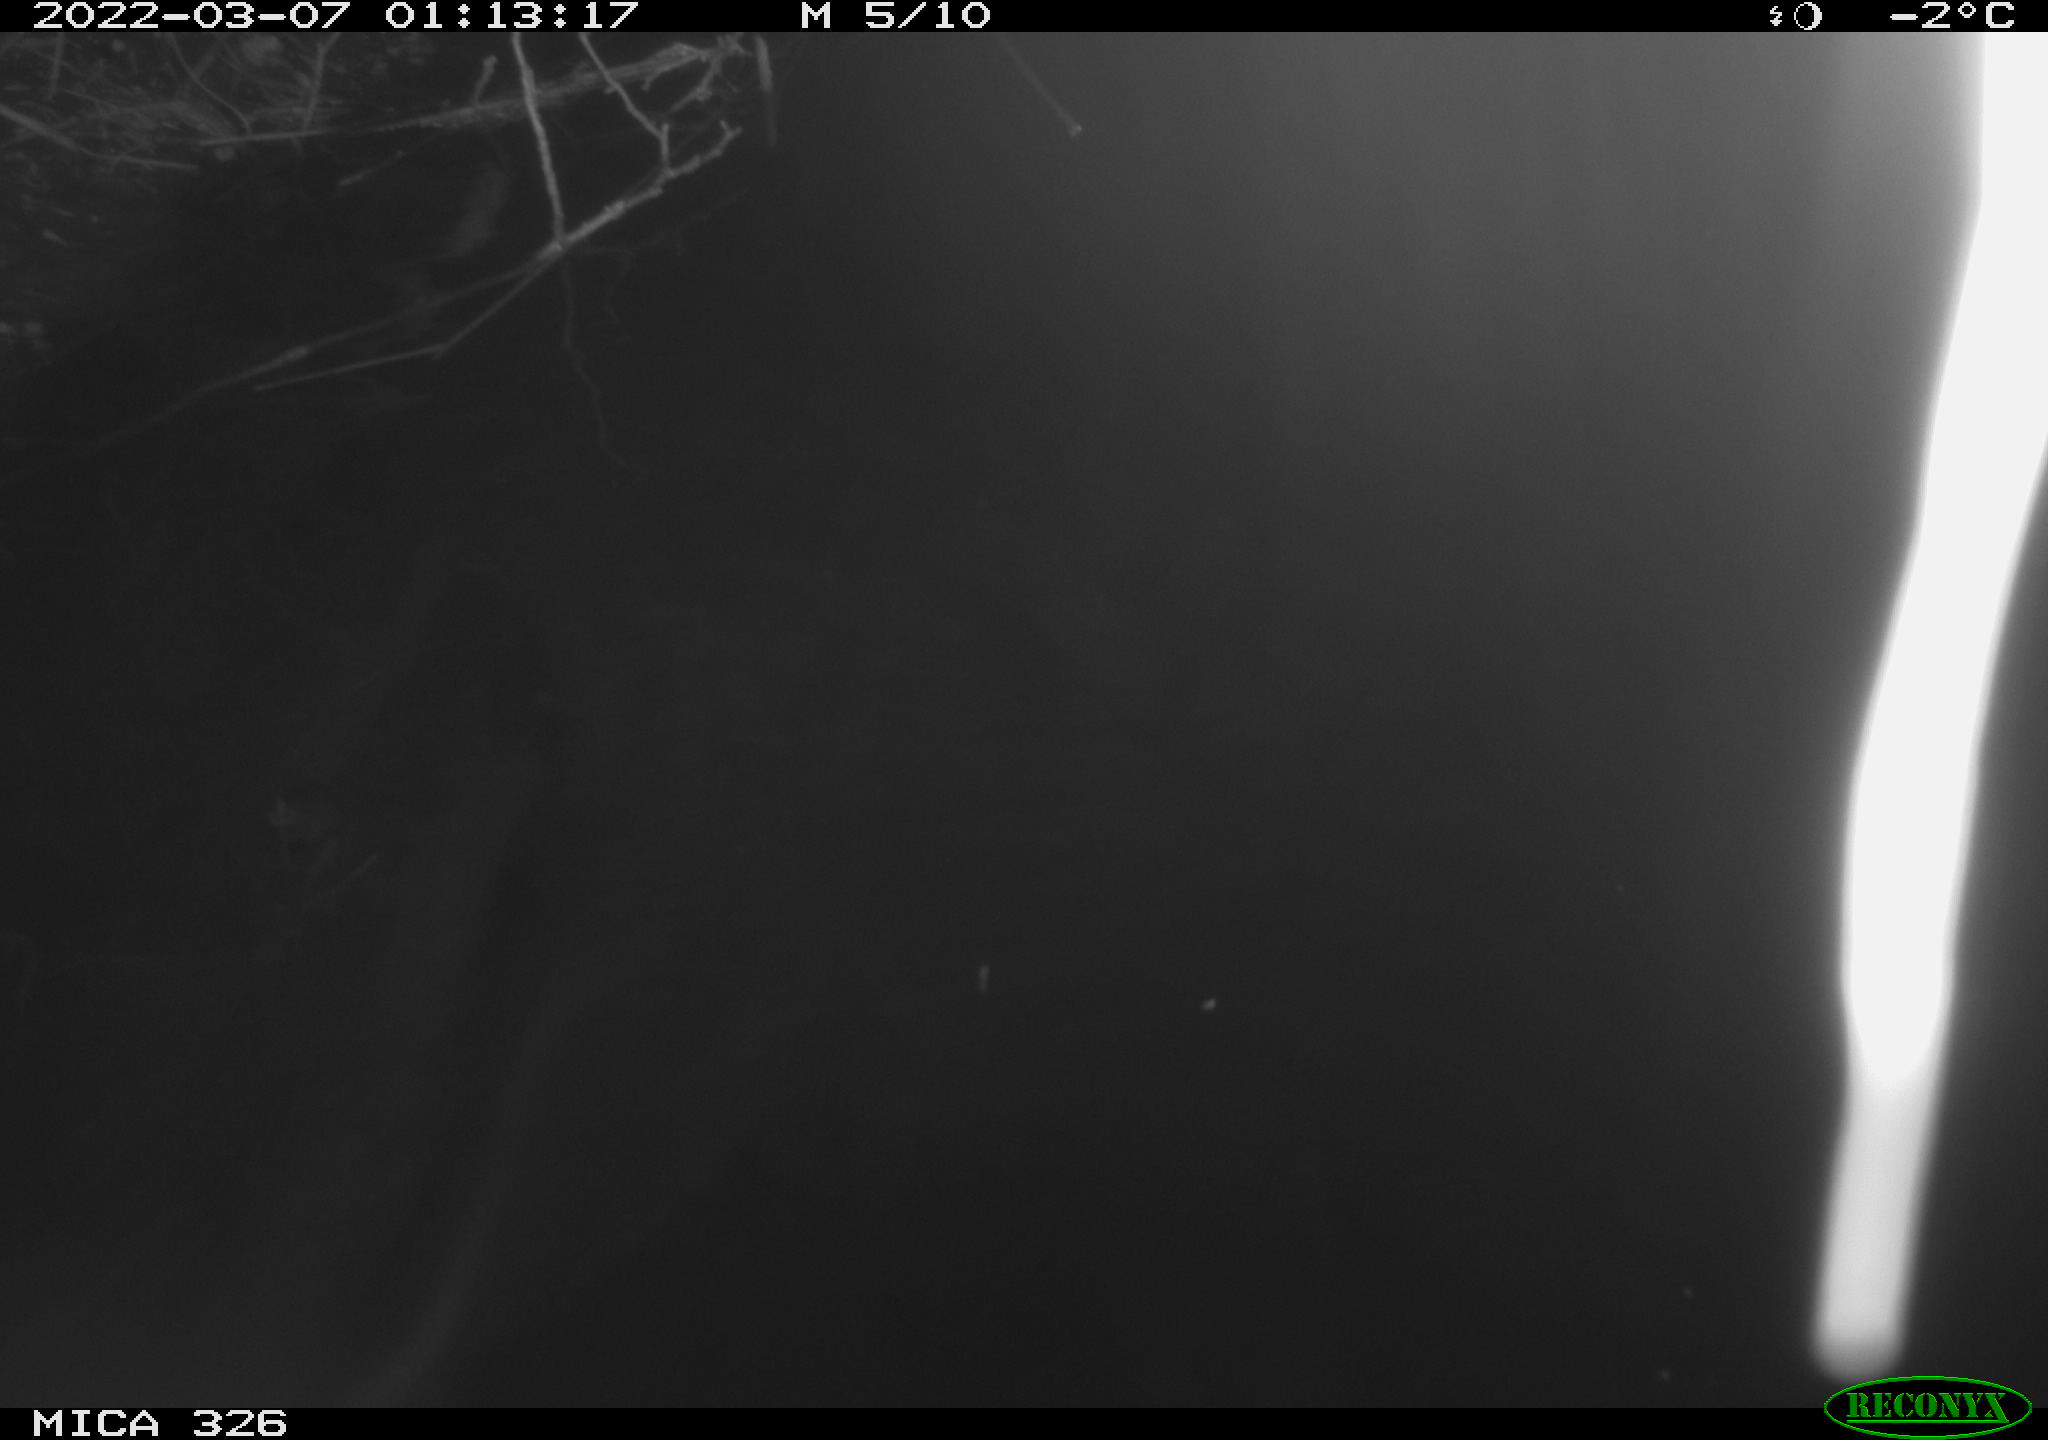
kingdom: Animalia
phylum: Chordata
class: Mammalia
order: Rodentia
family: Muridae
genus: Rattus
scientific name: Rattus norvegicus
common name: Brown rat
